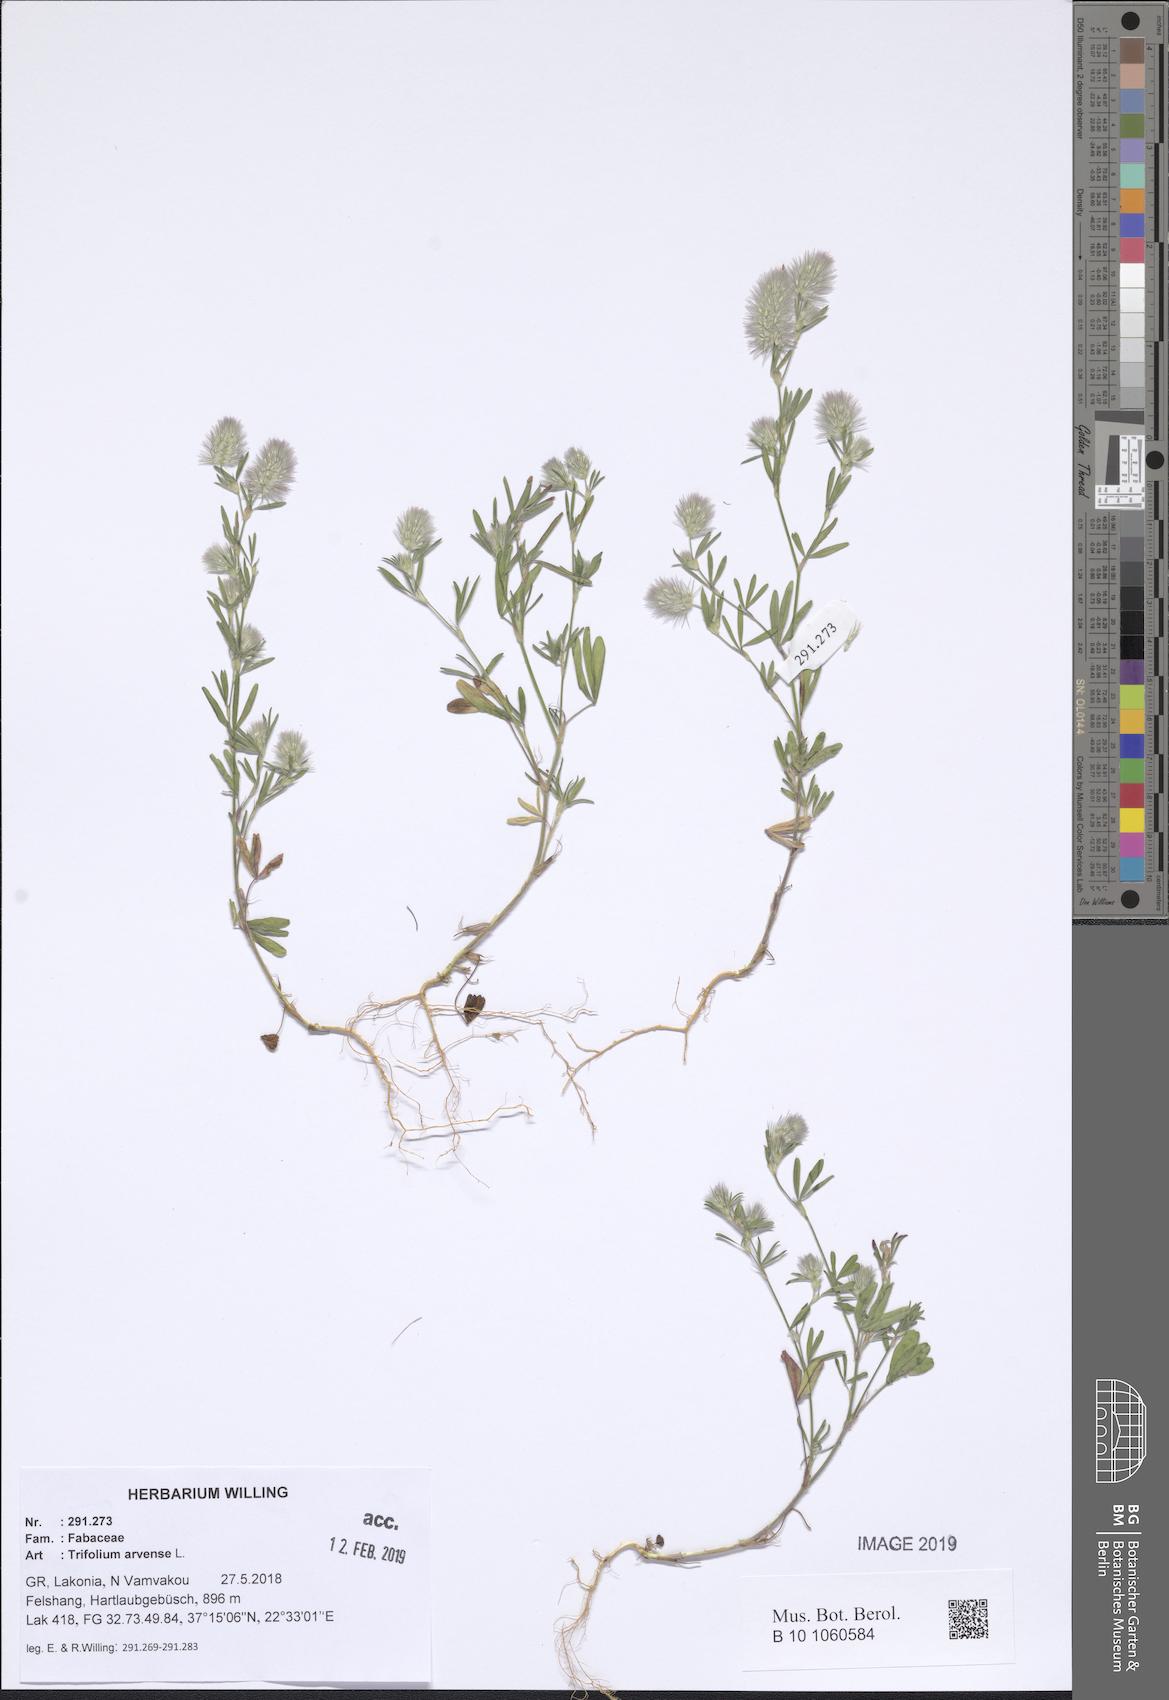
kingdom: Plantae
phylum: Tracheophyta
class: Magnoliopsida
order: Fabales
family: Fabaceae
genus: Trifolium
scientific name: Trifolium arvense
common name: Hare's-foot clover
